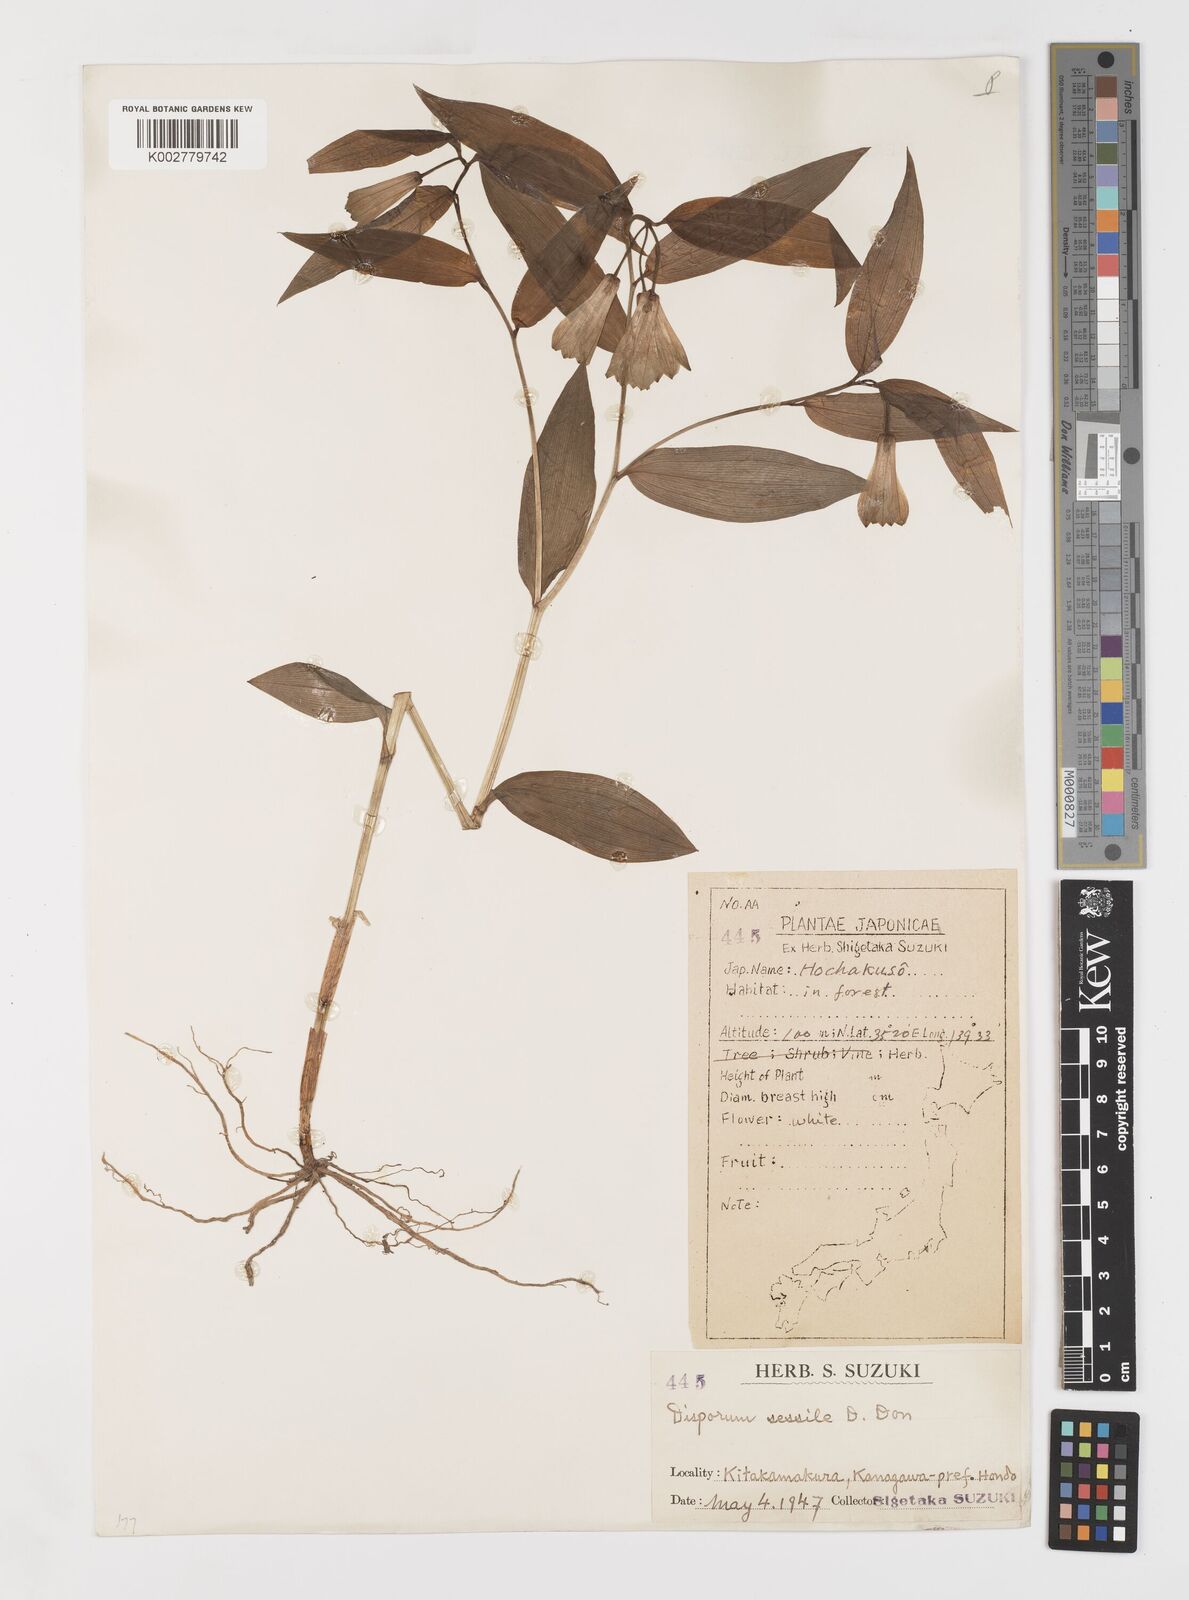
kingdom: Plantae
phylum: Tracheophyta
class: Liliopsida
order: Liliales
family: Colchicaceae
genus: Disporum
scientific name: Disporum sessile
